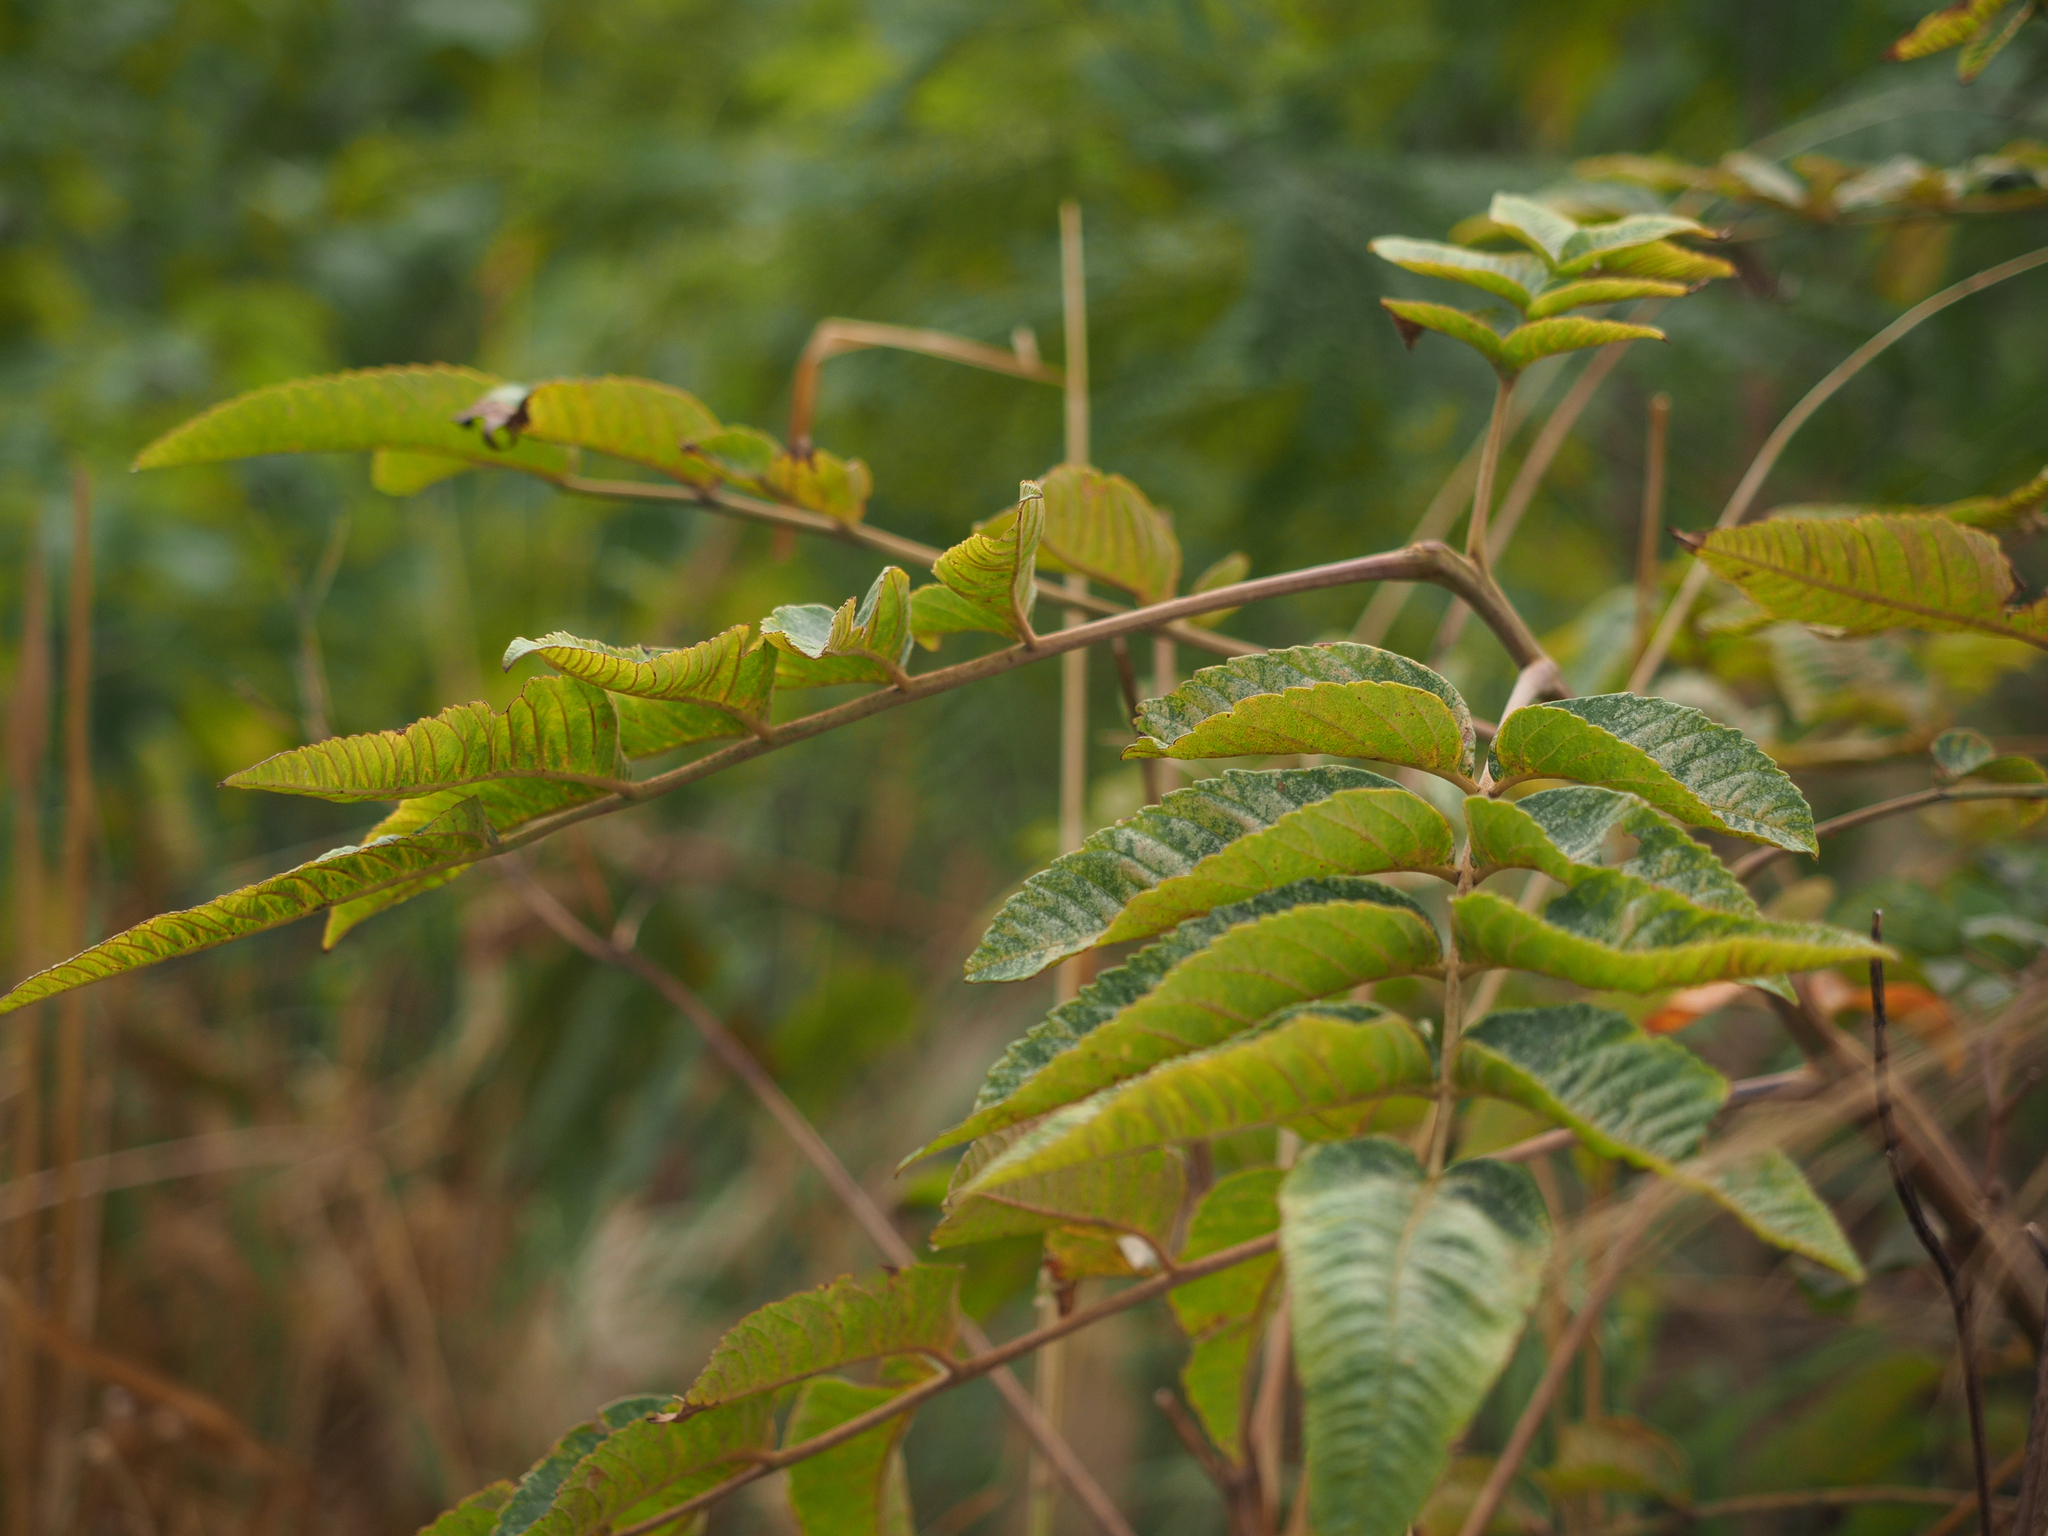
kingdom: Plantae
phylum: Tracheophyta
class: Magnoliopsida
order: Sapindales
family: Anacardiaceae
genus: Rhus
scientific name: Rhus chinensis
